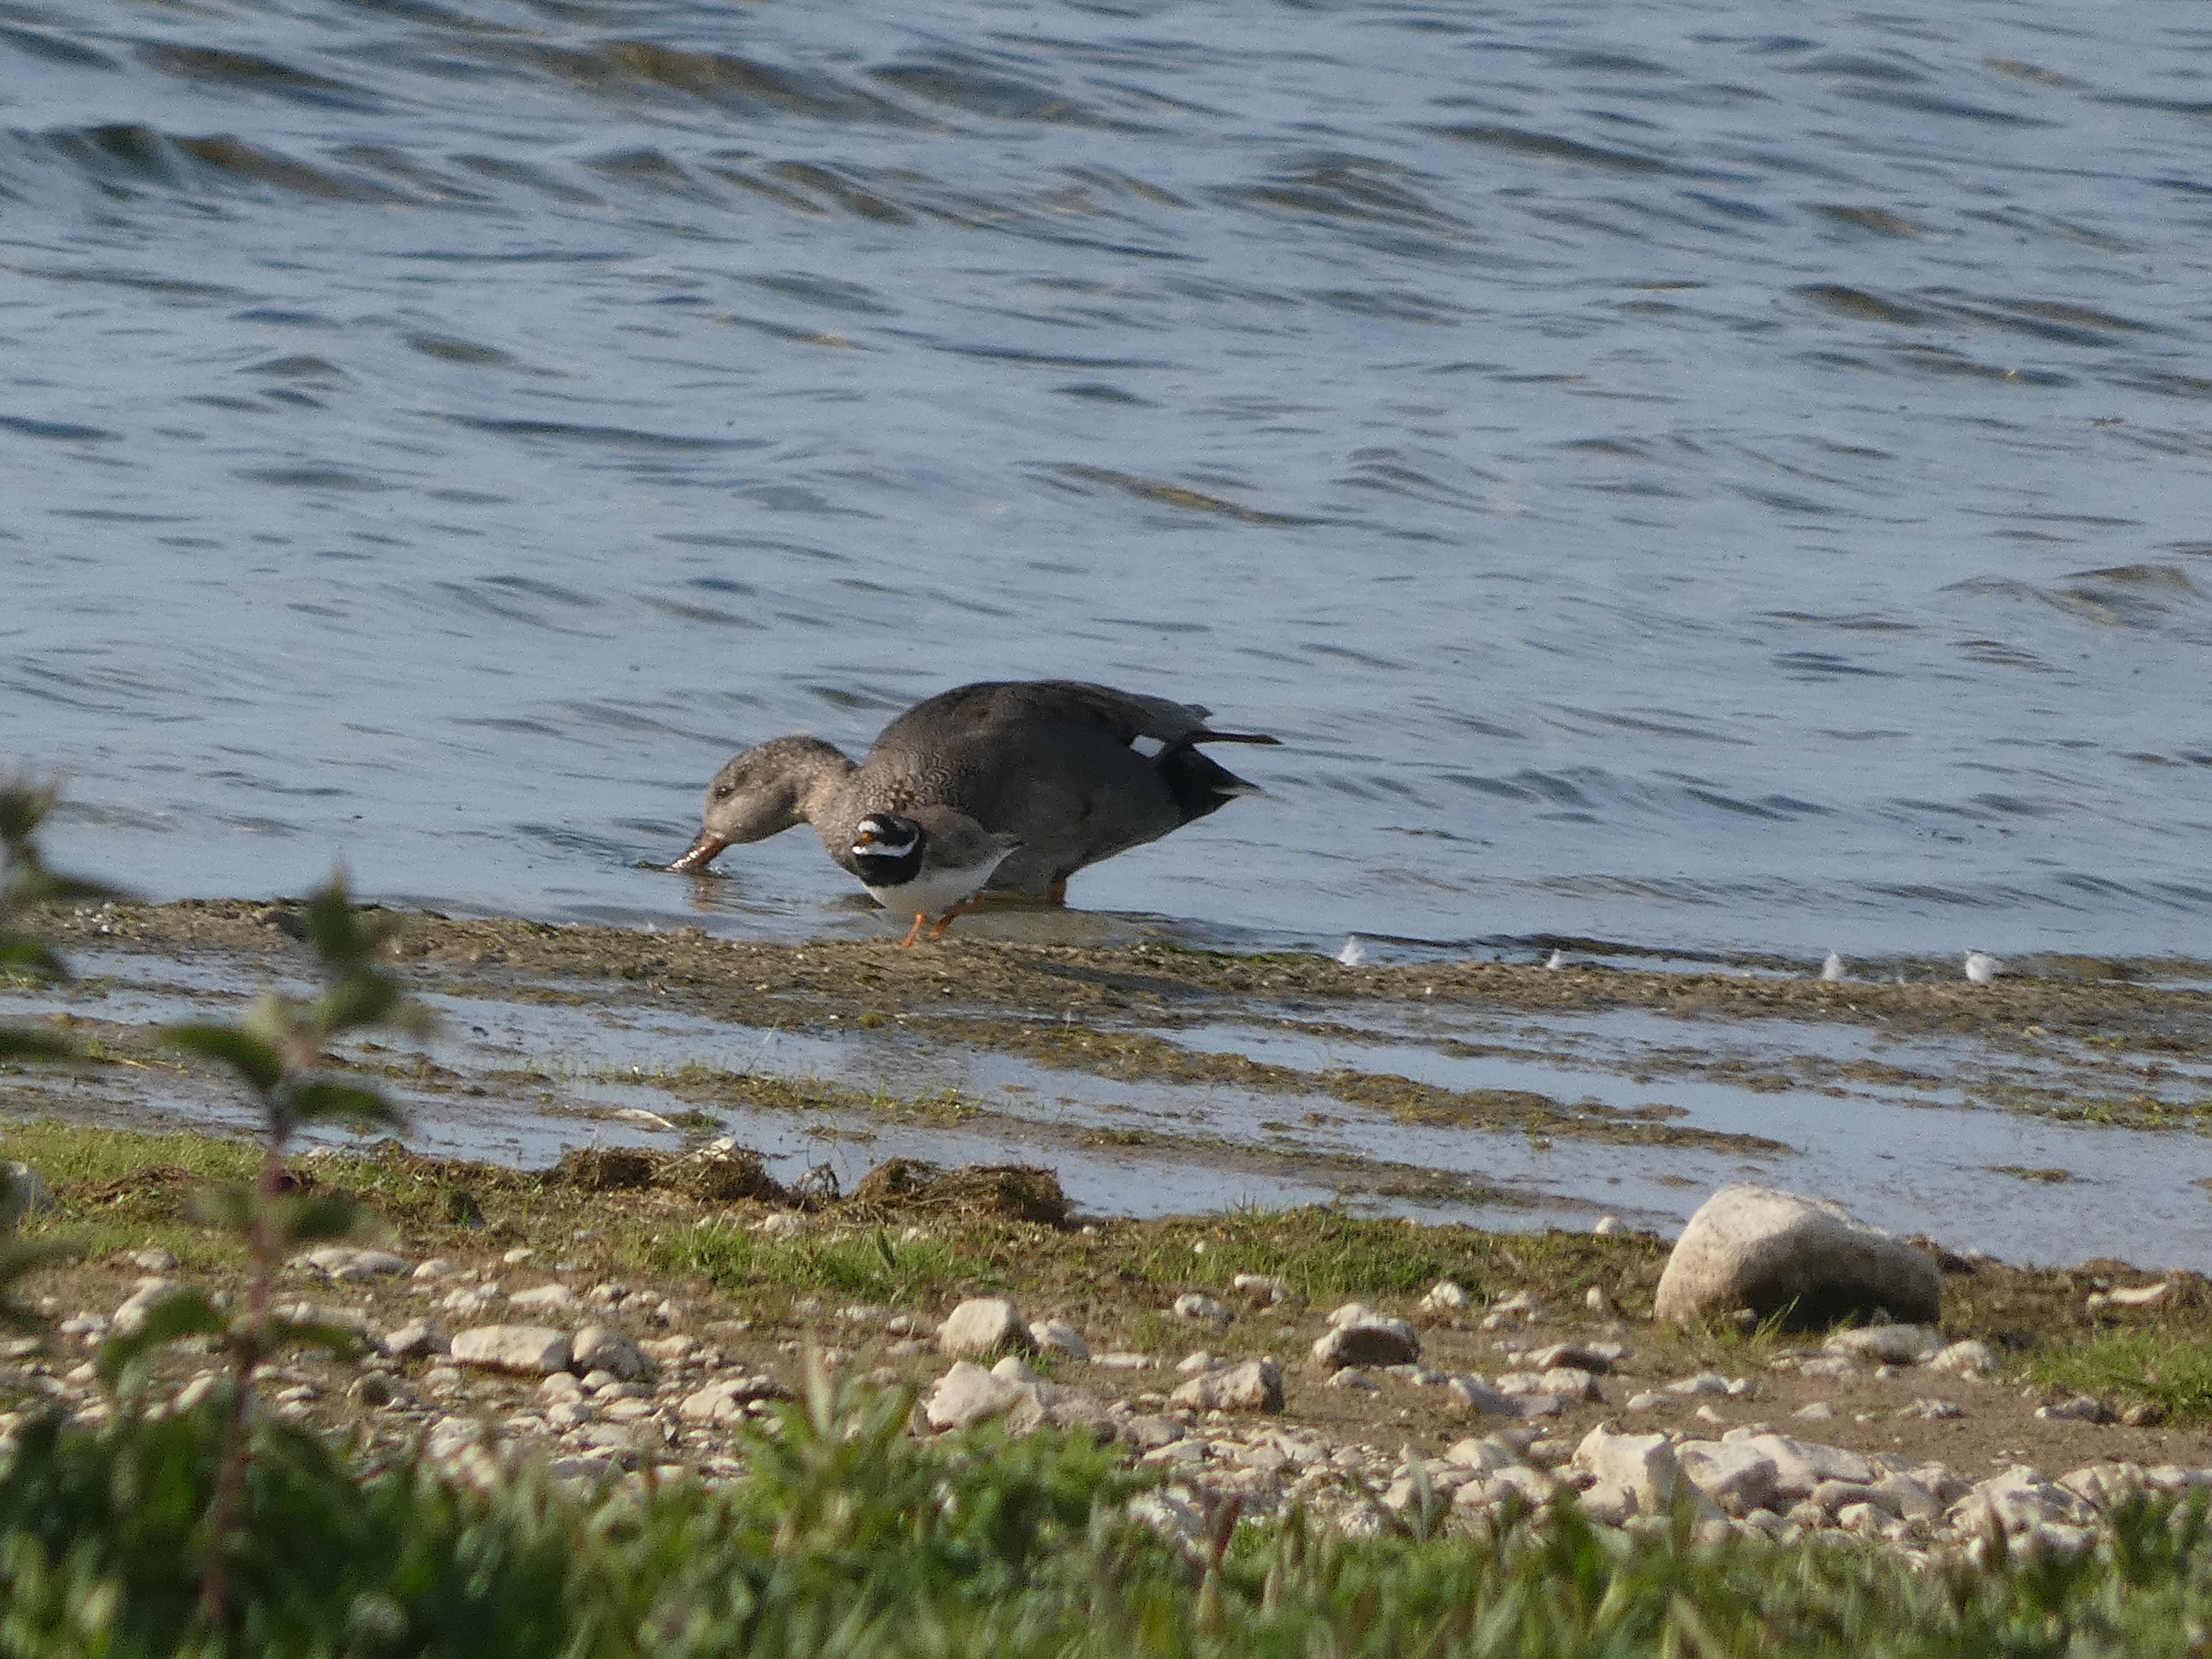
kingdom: Animalia
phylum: Chordata
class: Aves
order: Charadriiformes
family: Charadriidae
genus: Charadrius
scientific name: Charadrius hiaticula
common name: Stor præstekrave
